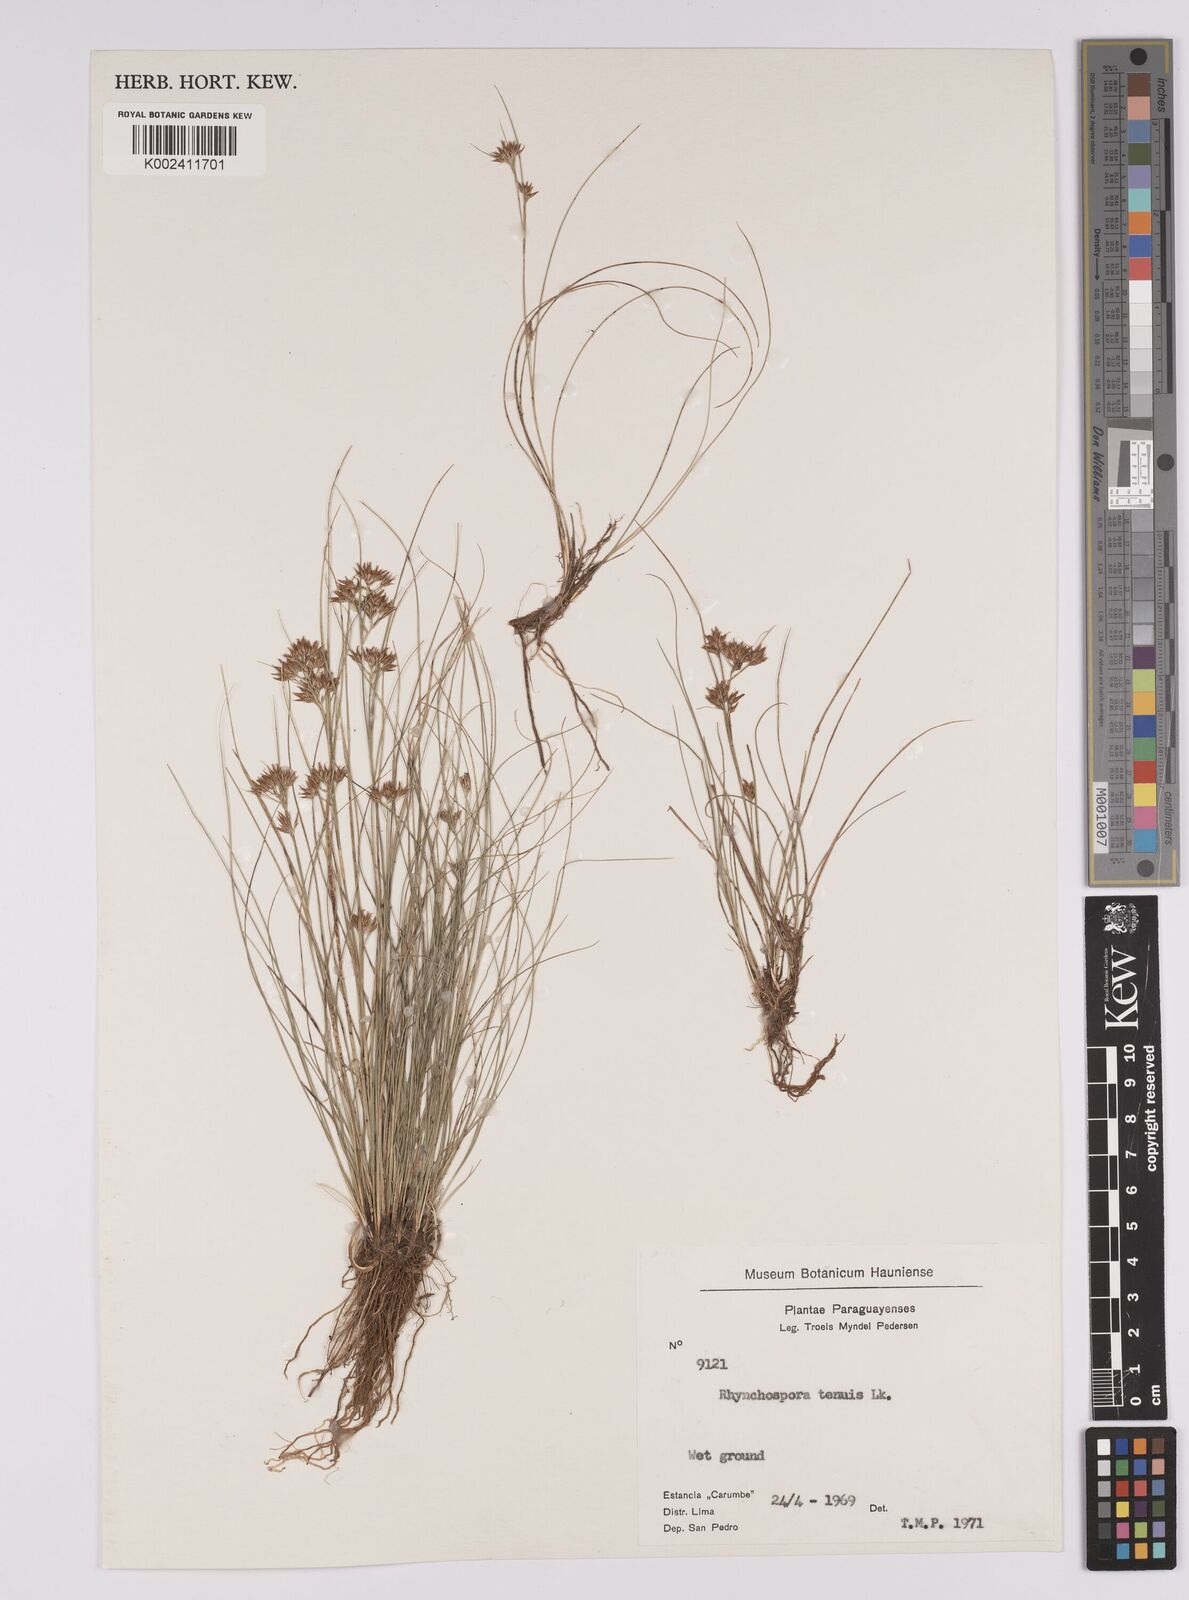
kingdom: Plantae
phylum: Tracheophyta
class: Liliopsida
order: Poales
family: Cyperaceae
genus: Rhynchospora
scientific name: Rhynchospora tenuis
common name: Quill beaksedge
